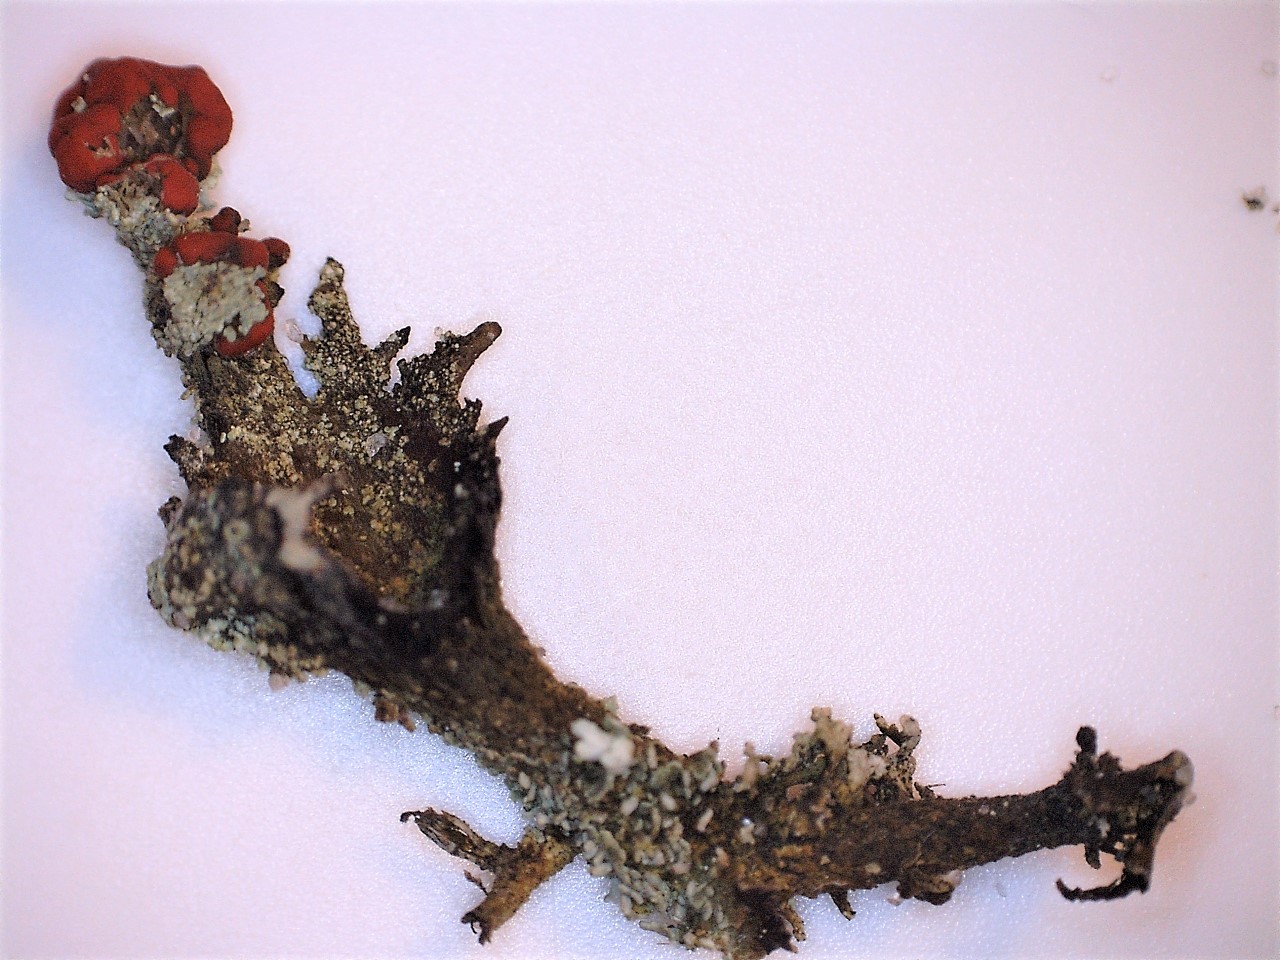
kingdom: Fungi
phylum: Ascomycota
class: Lecanoromycetes
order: Lecanorales
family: Cladoniaceae
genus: Cladonia
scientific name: Cladonia diversa
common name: rød bægerlav
